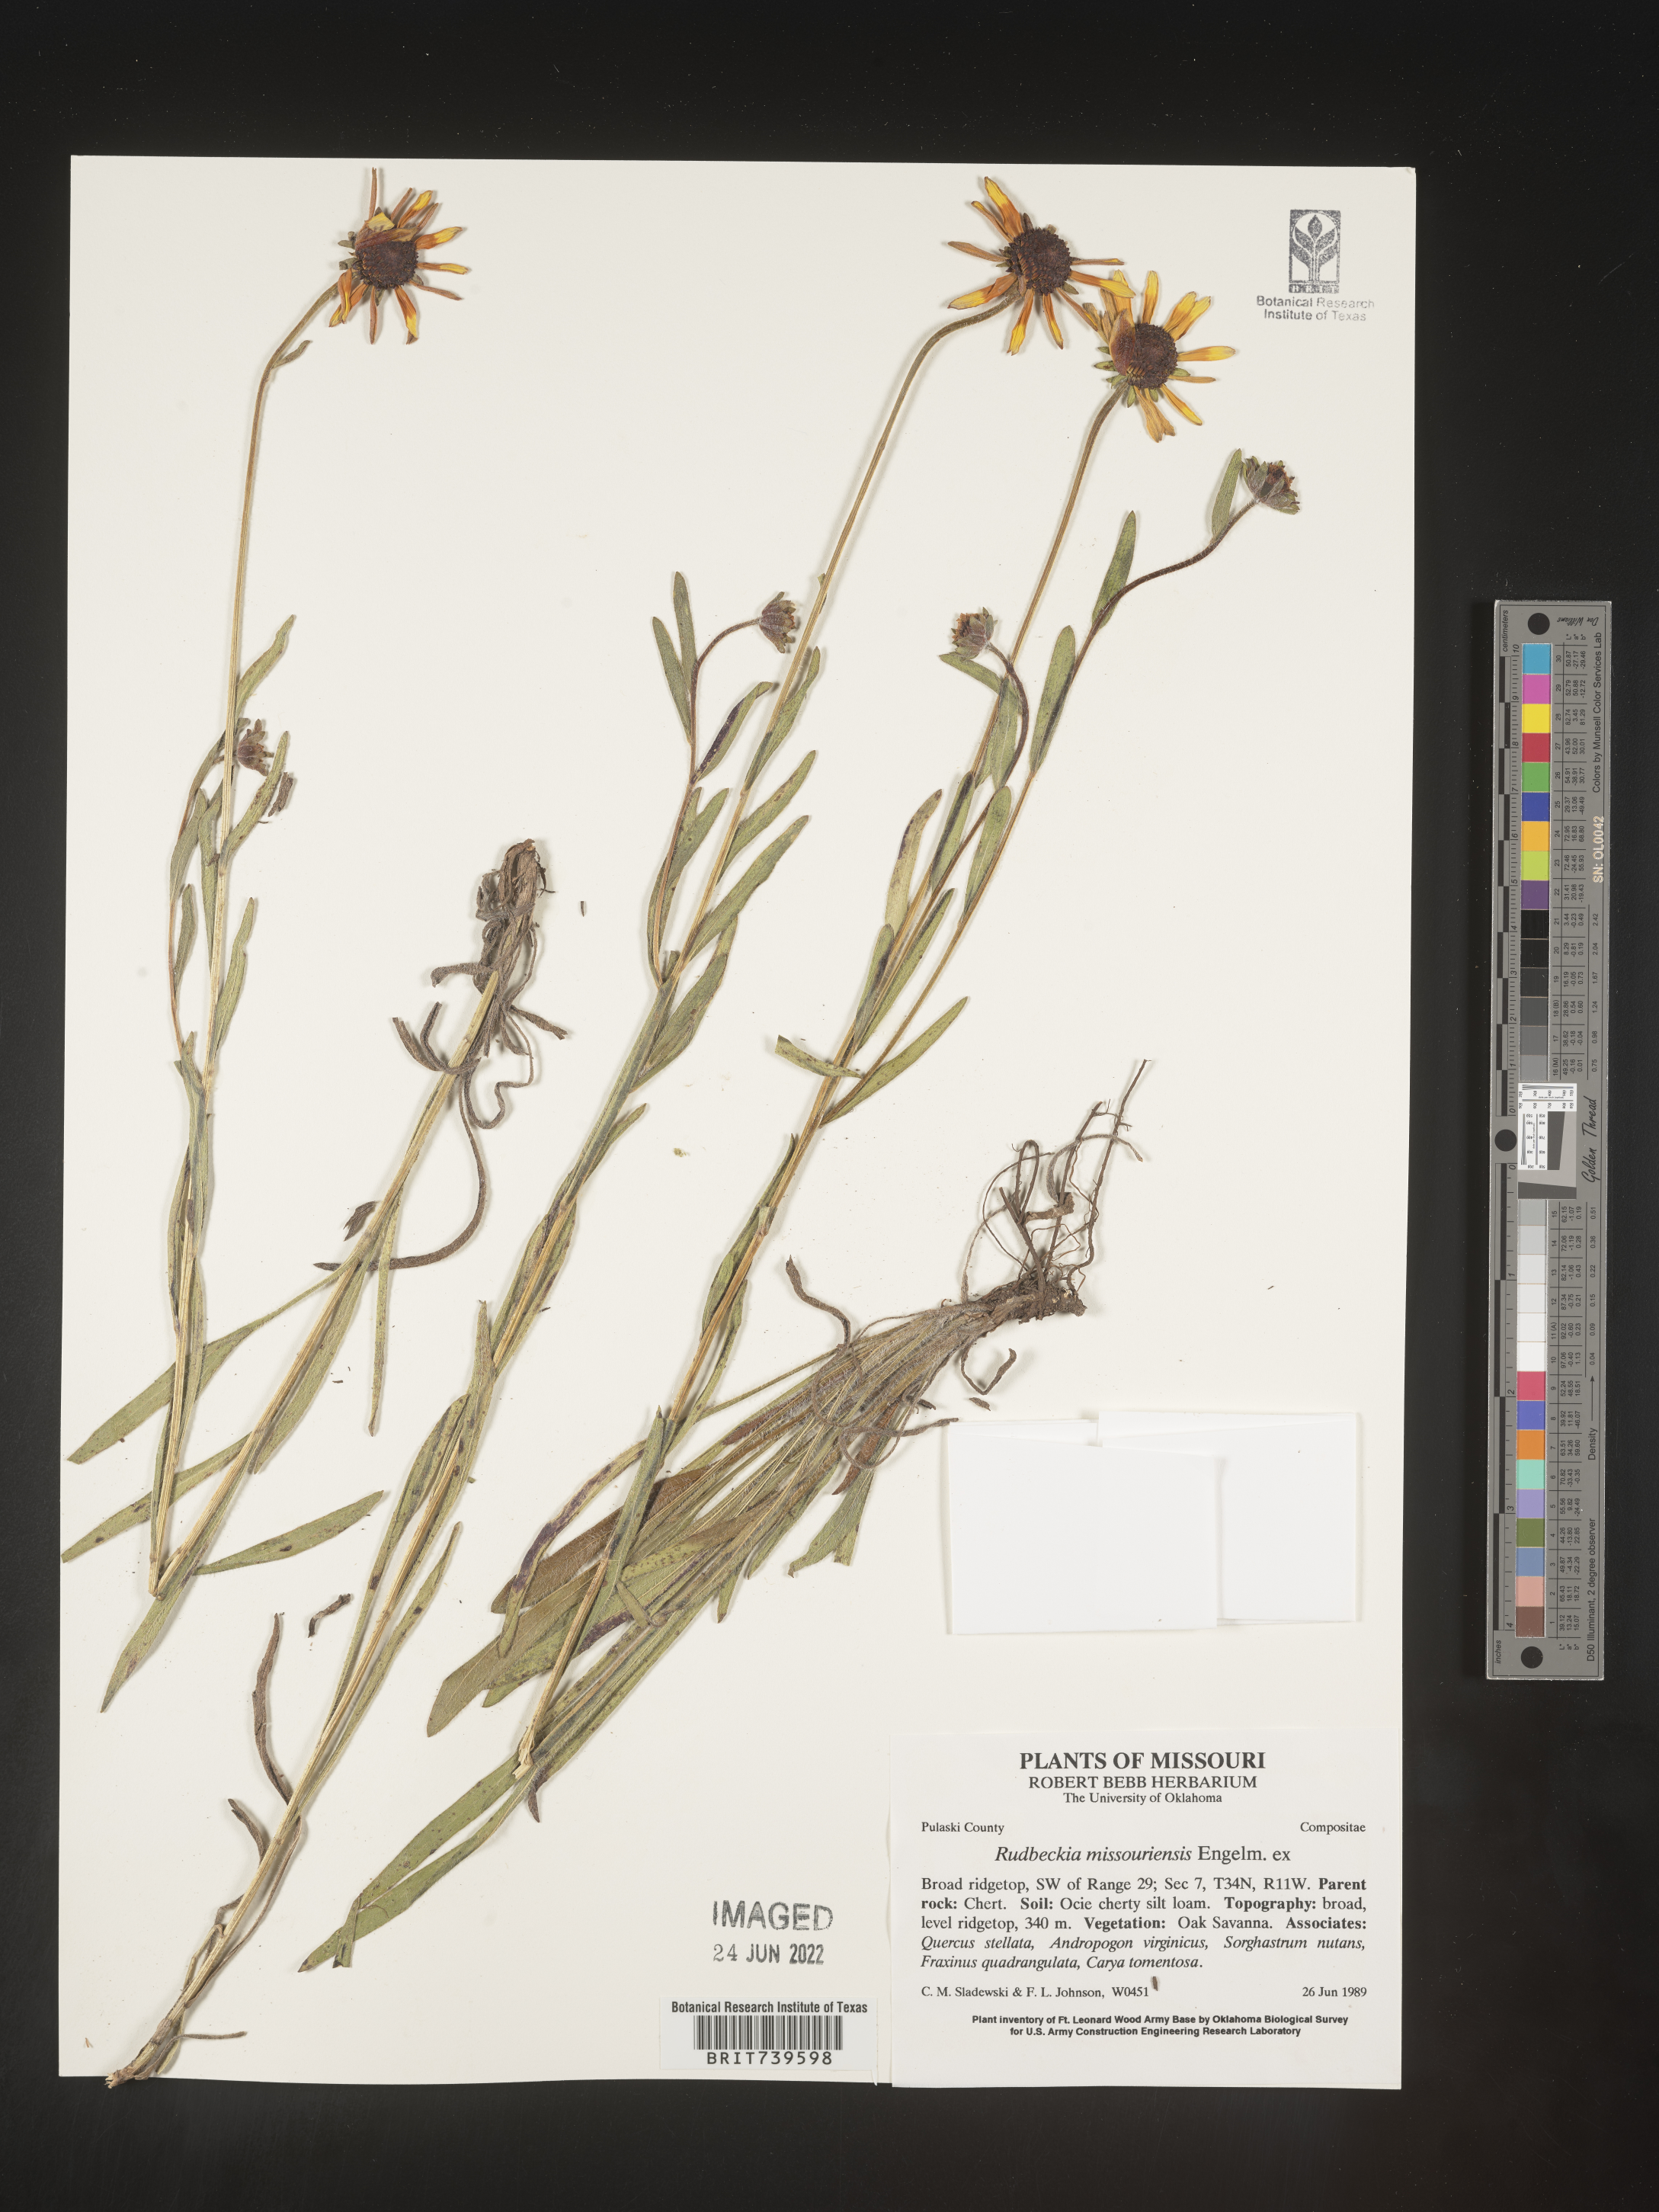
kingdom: Plantae
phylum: Tracheophyta
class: Magnoliopsida
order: Asterales
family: Asteraceae
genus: Rudbeckia
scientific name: Rudbeckia missouriensis
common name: Missouri coneflower
